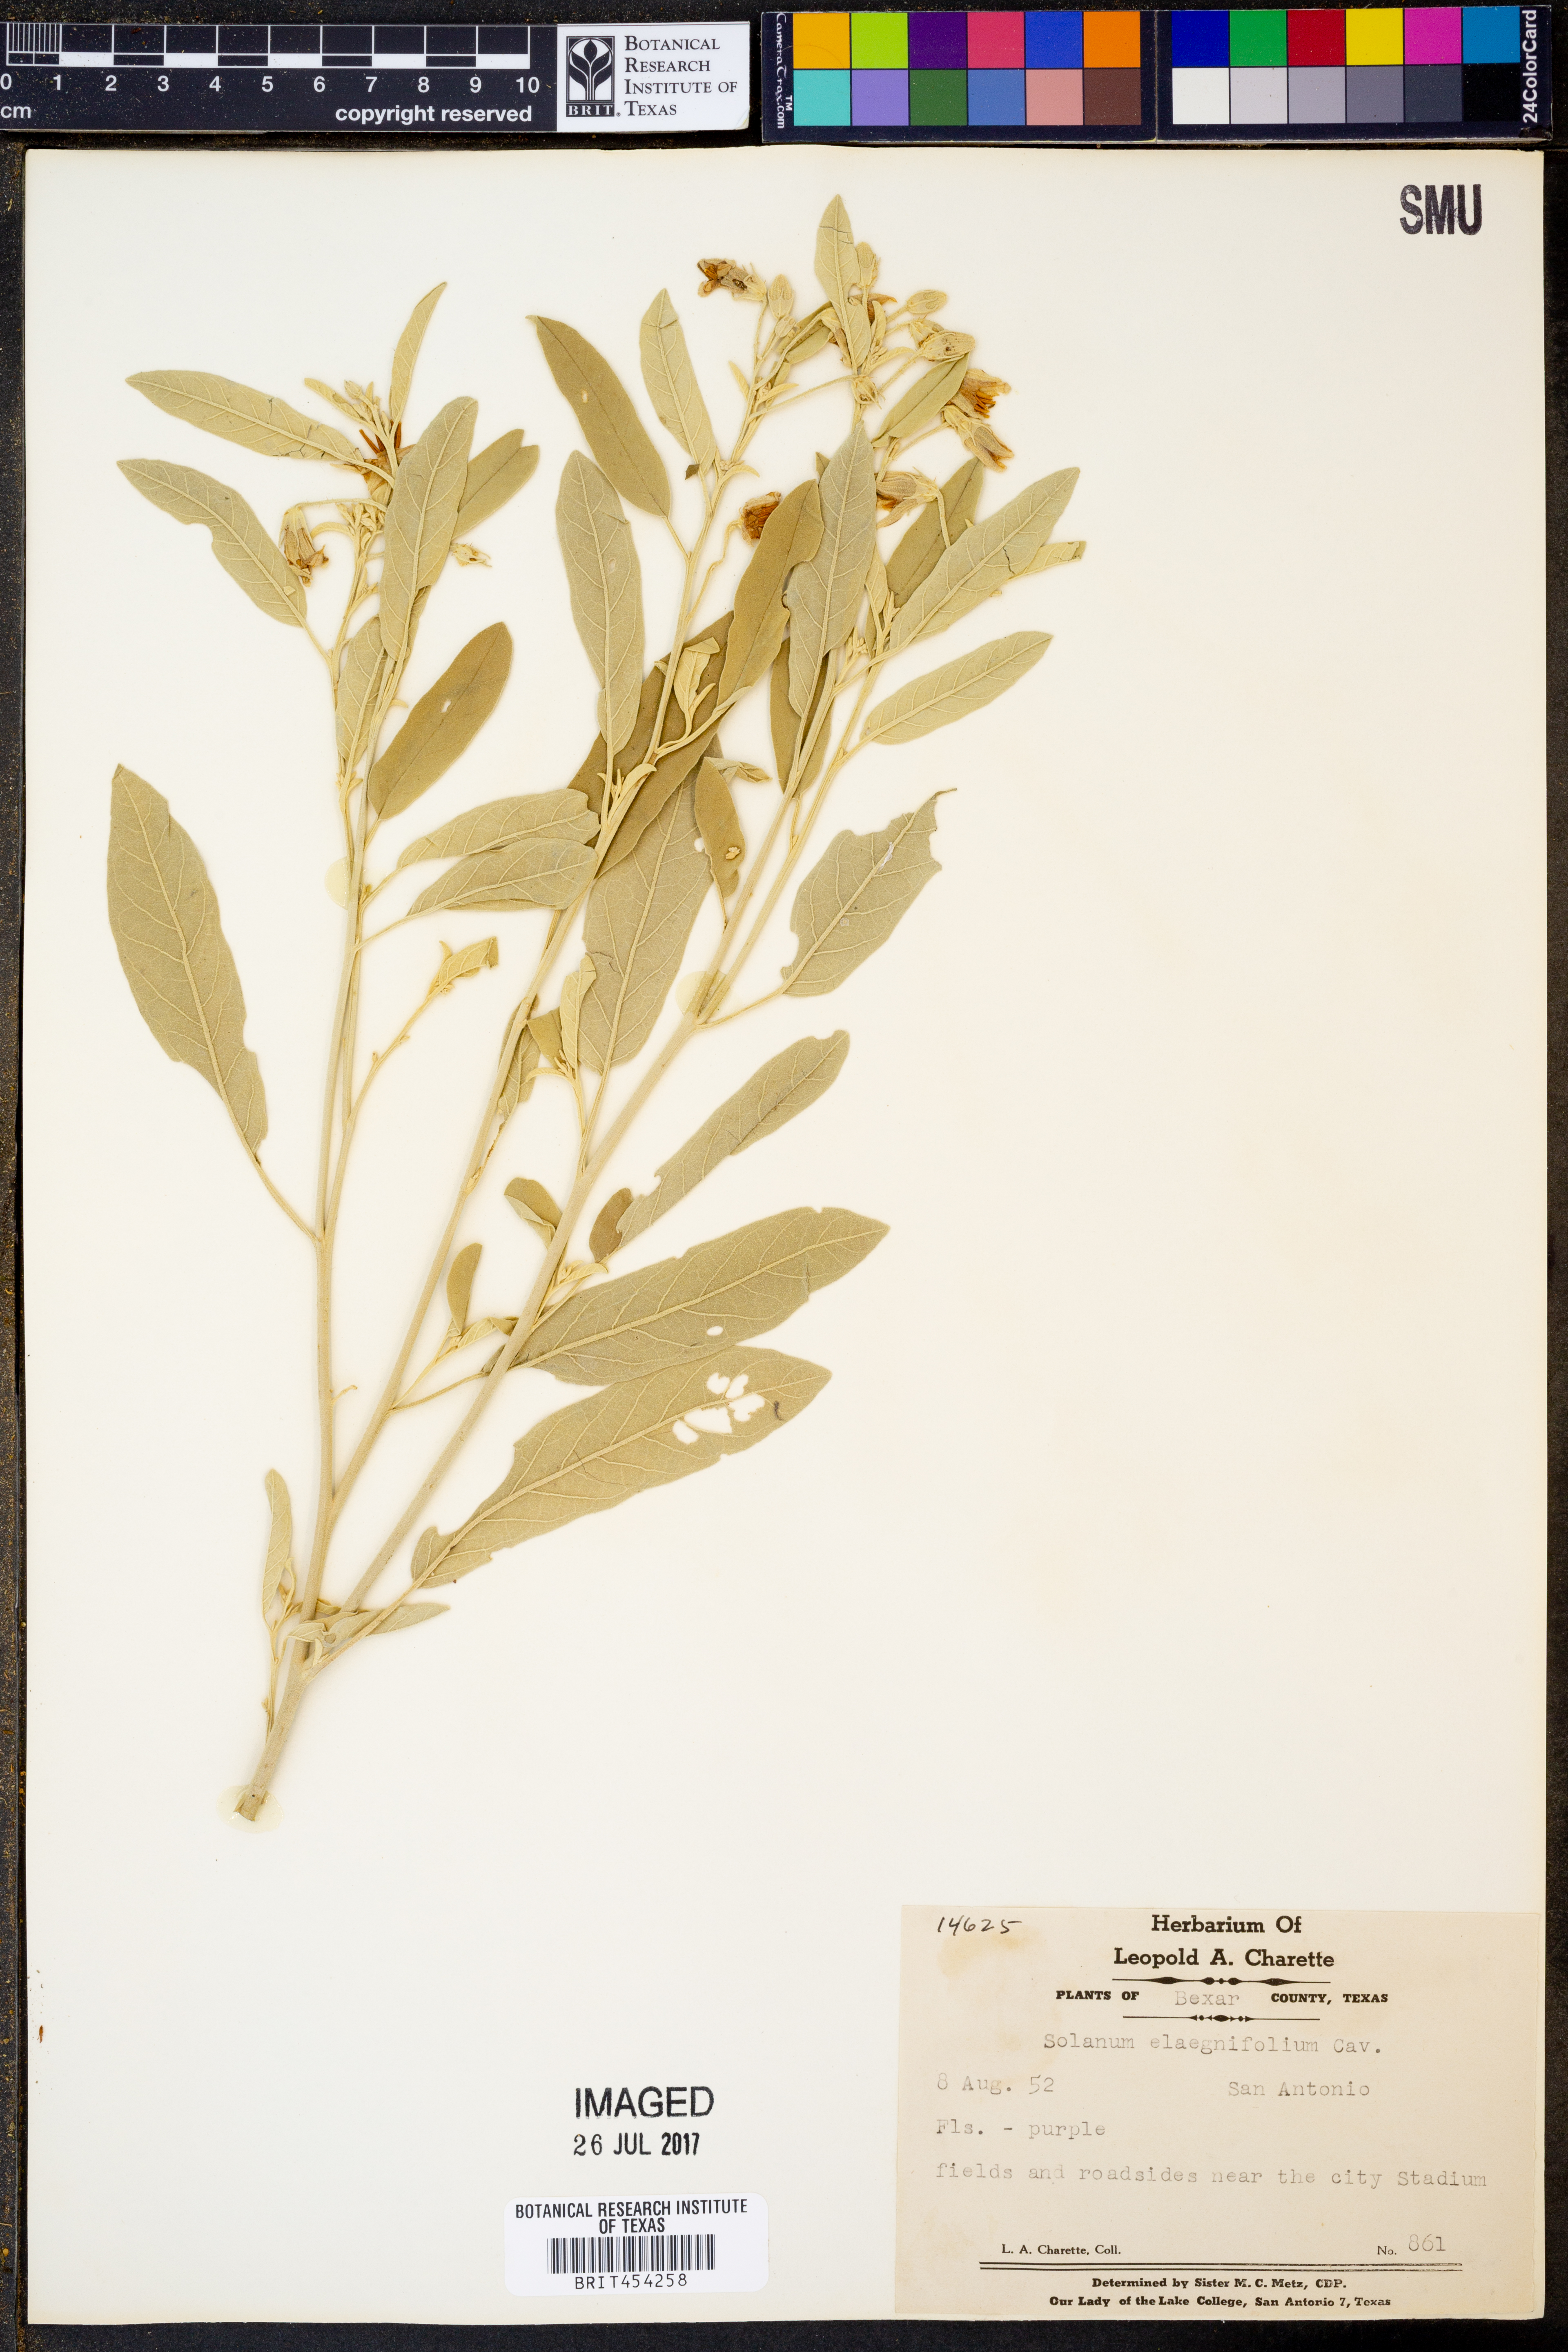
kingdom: Plantae
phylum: Tracheophyta
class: Magnoliopsida
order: Solanales
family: Solanaceae
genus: Solanum
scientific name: Solanum elaeagnifolium
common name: Silverleaf nightshade
